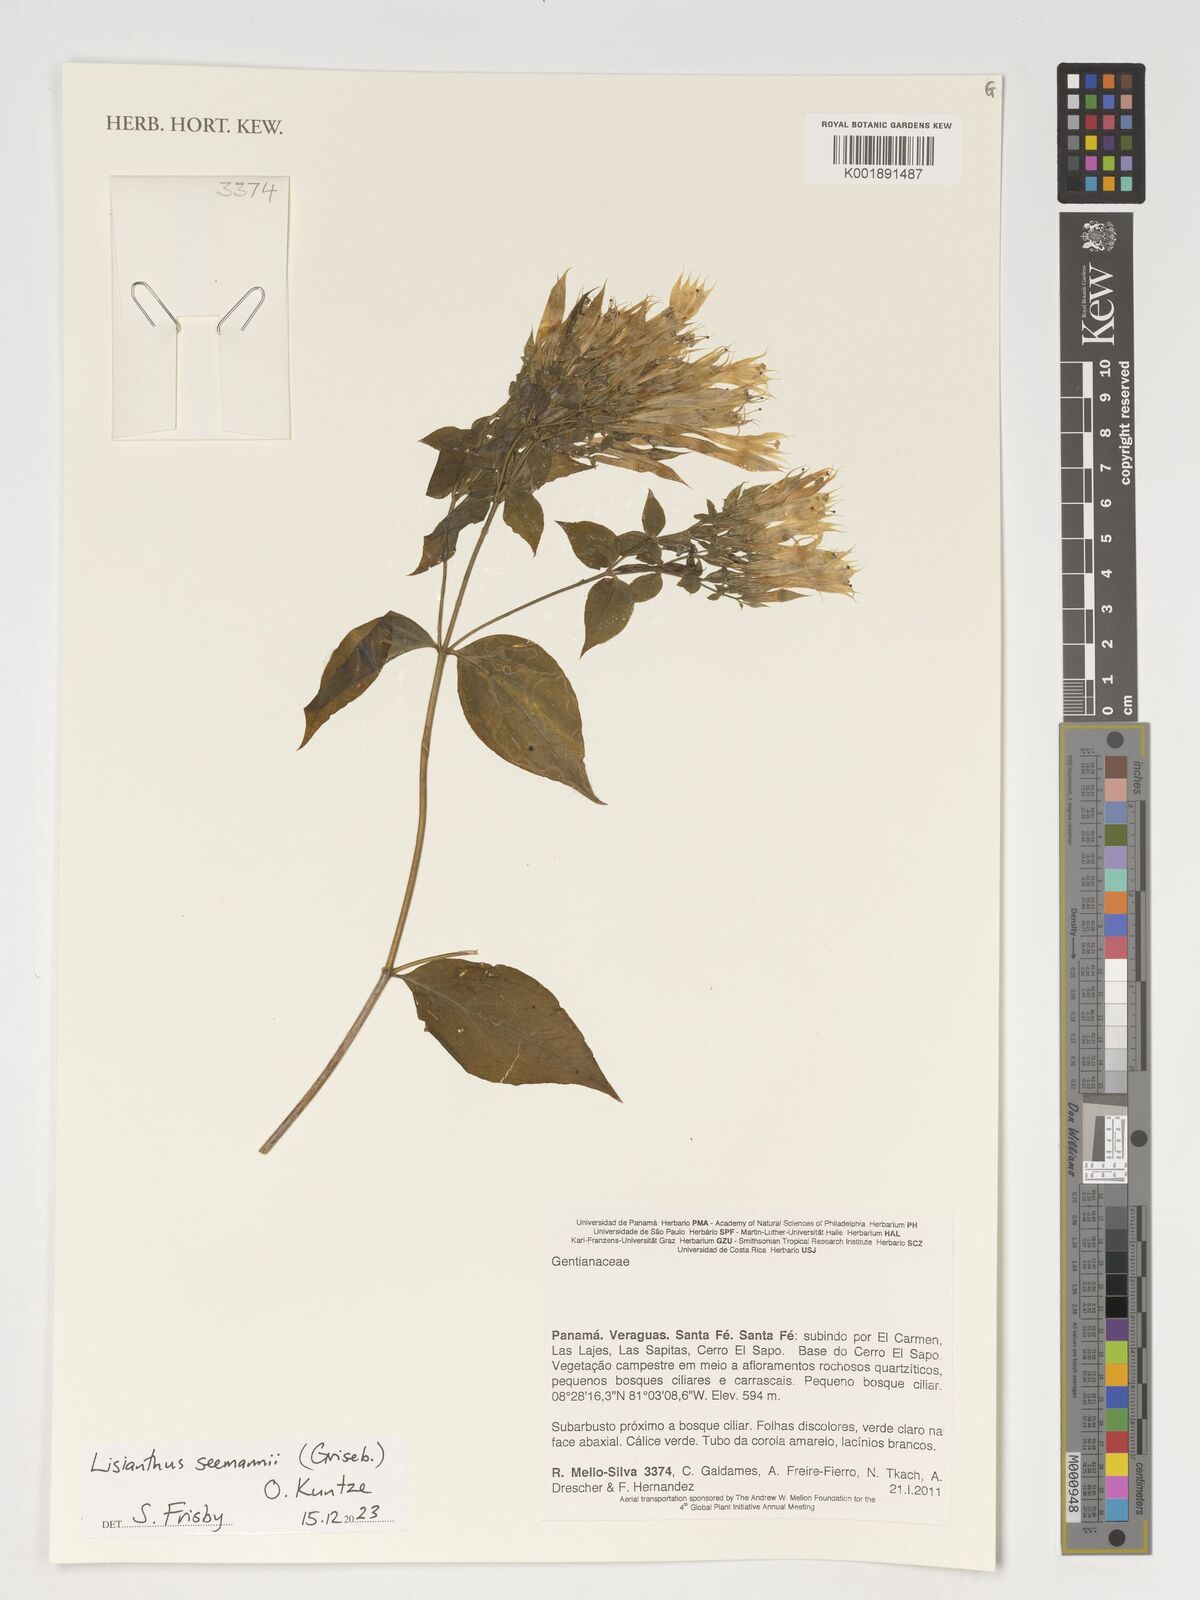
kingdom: Plantae
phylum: Tracheophyta
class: Magnoliopsida
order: Gentianales
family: Gentianaceae
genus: Lisianthus
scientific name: Lisianthus seemannii
